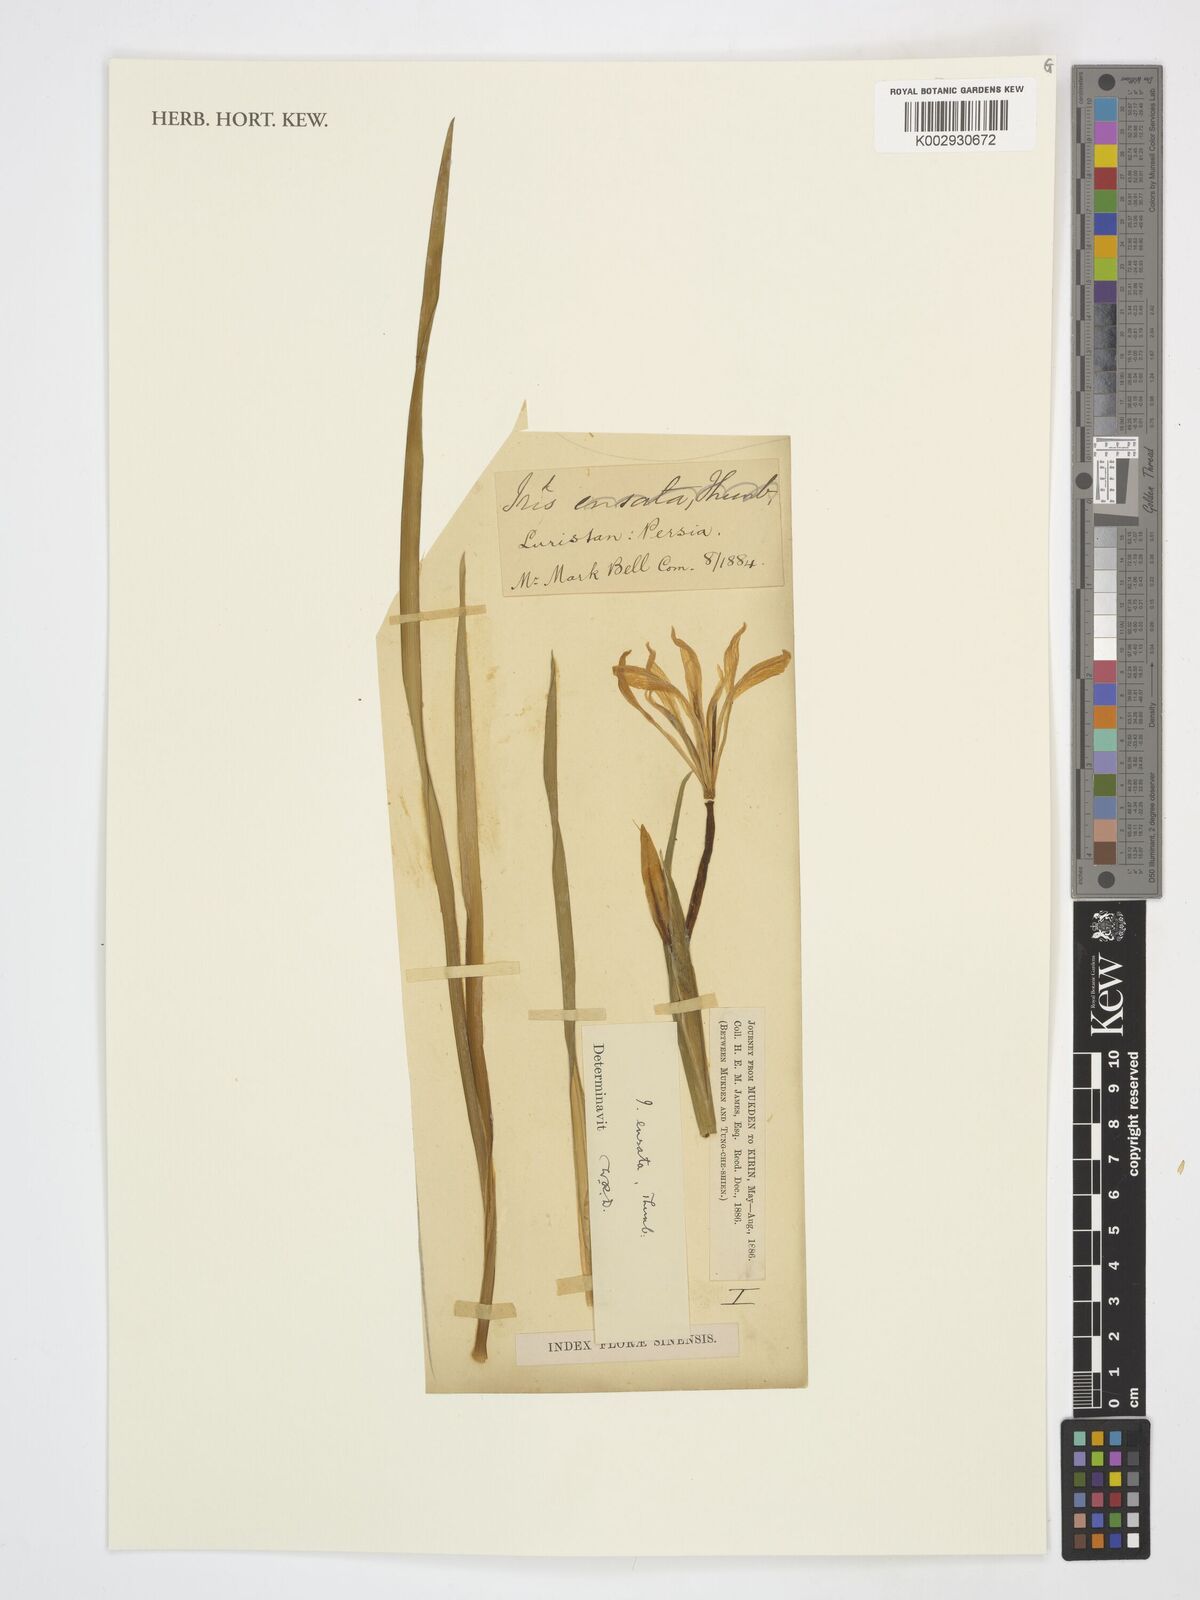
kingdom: Plantae
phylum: Tracheophyta
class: Liliopsida
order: Asparagales
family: Iridaceae
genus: Iris
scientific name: Iris ensata
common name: Beaked iris
